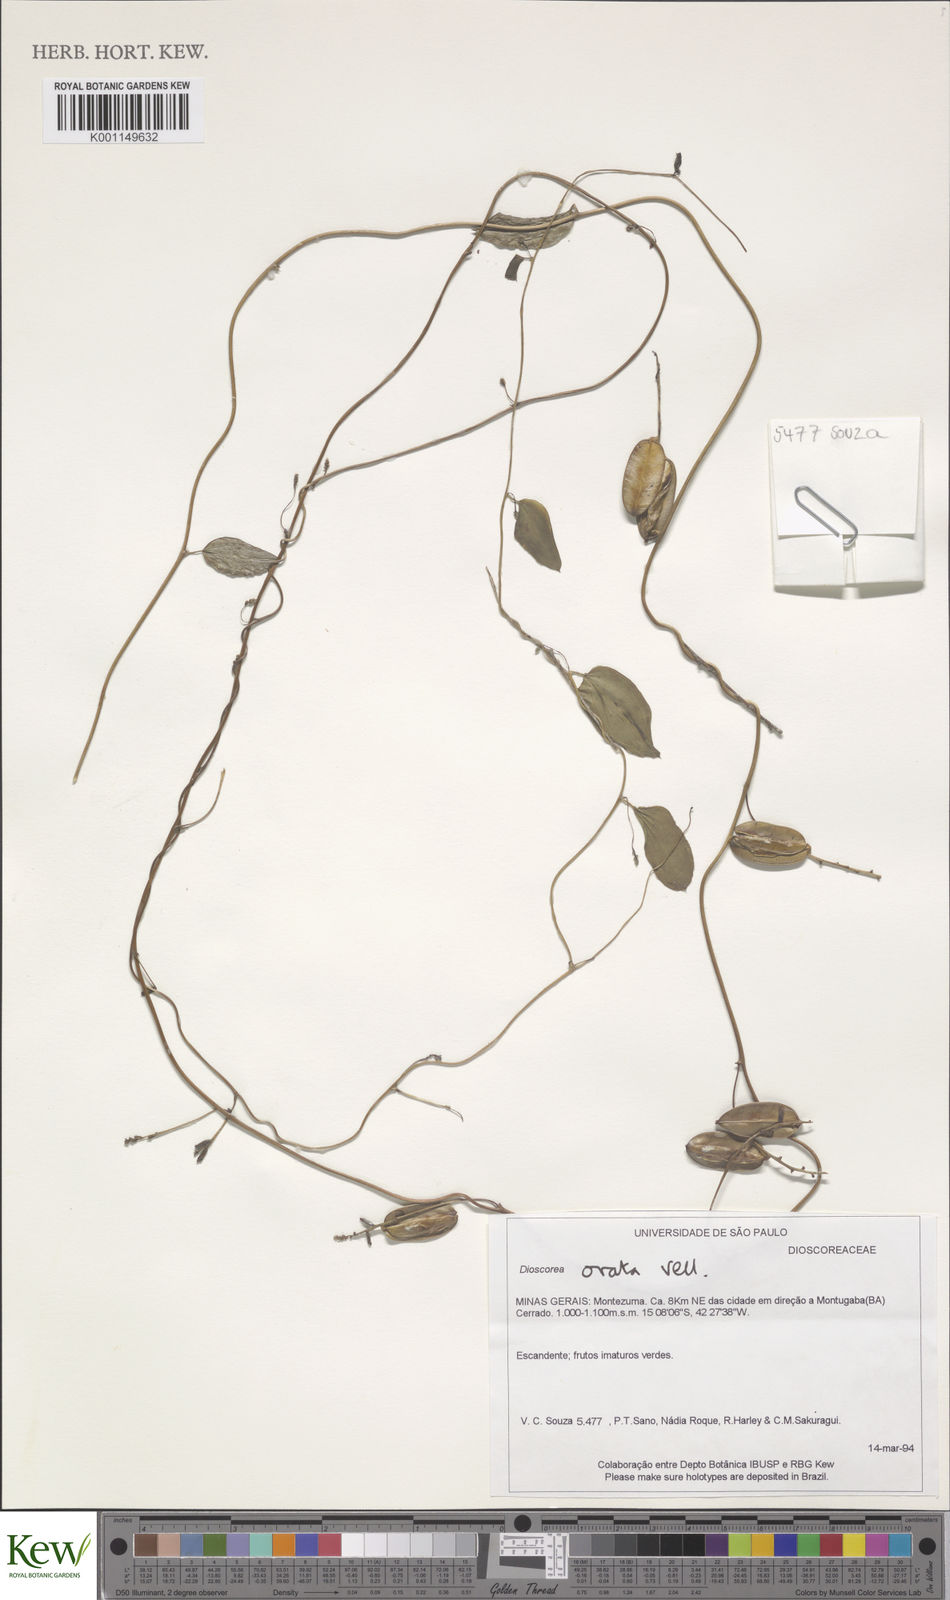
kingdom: Plantae
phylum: Tracheophyta
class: Liliopsida
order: Dioscoreales
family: Dioscoreaceae
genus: Dioscorea
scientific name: Dioscorea ovata
